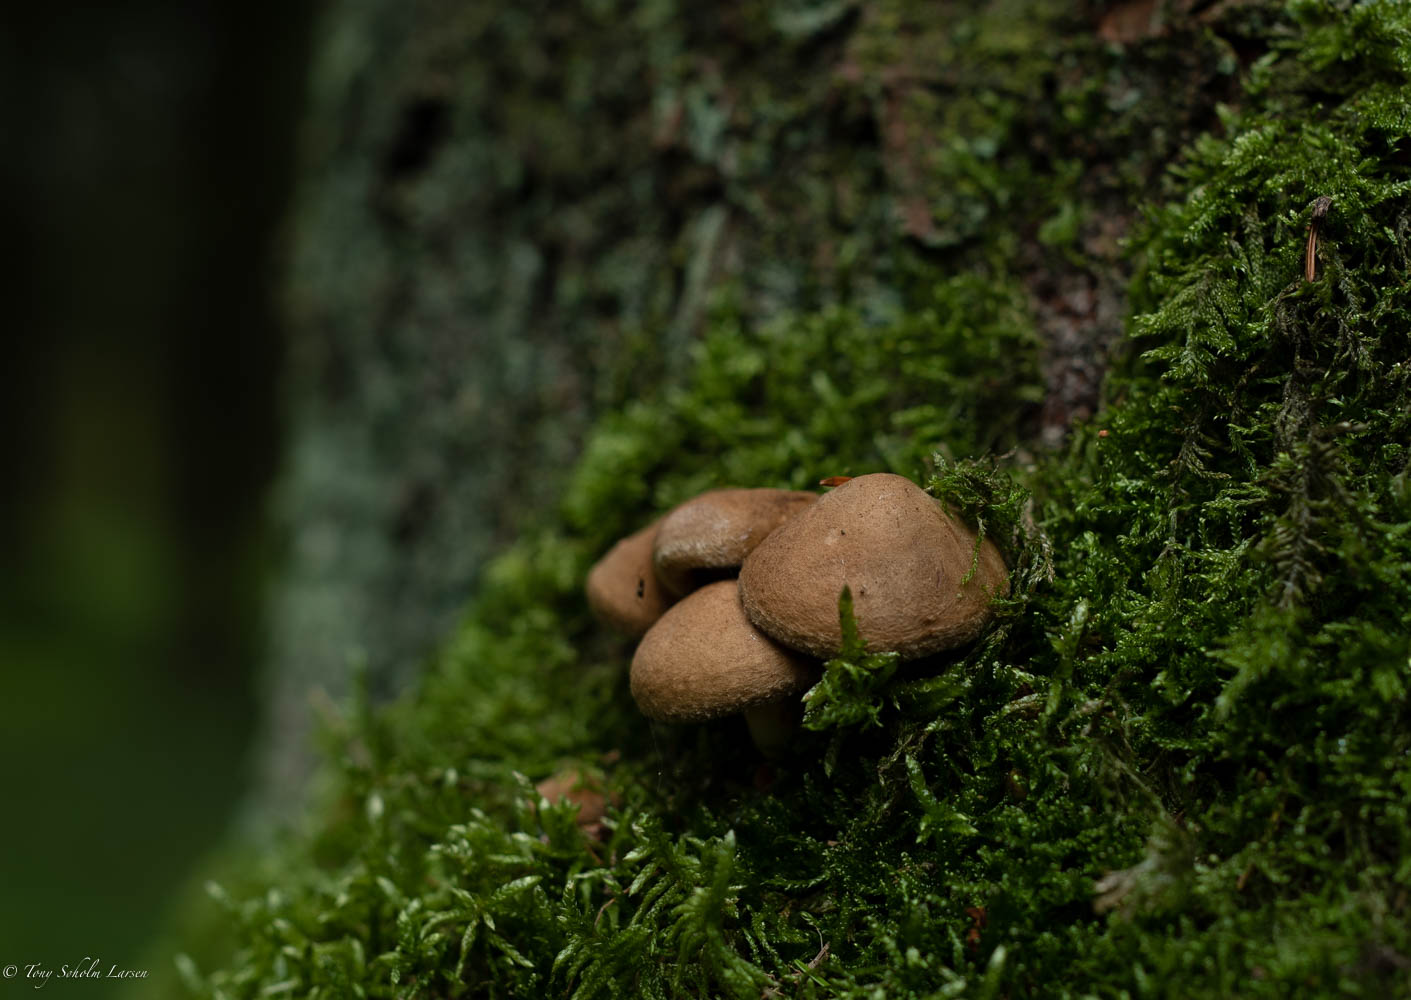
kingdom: Fungi
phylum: Basidiomycota
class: Agaricomycetes
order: Agaricales
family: Strophariaceae
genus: Deconica
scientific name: Deconica horizontalis
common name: ved-stråhat
